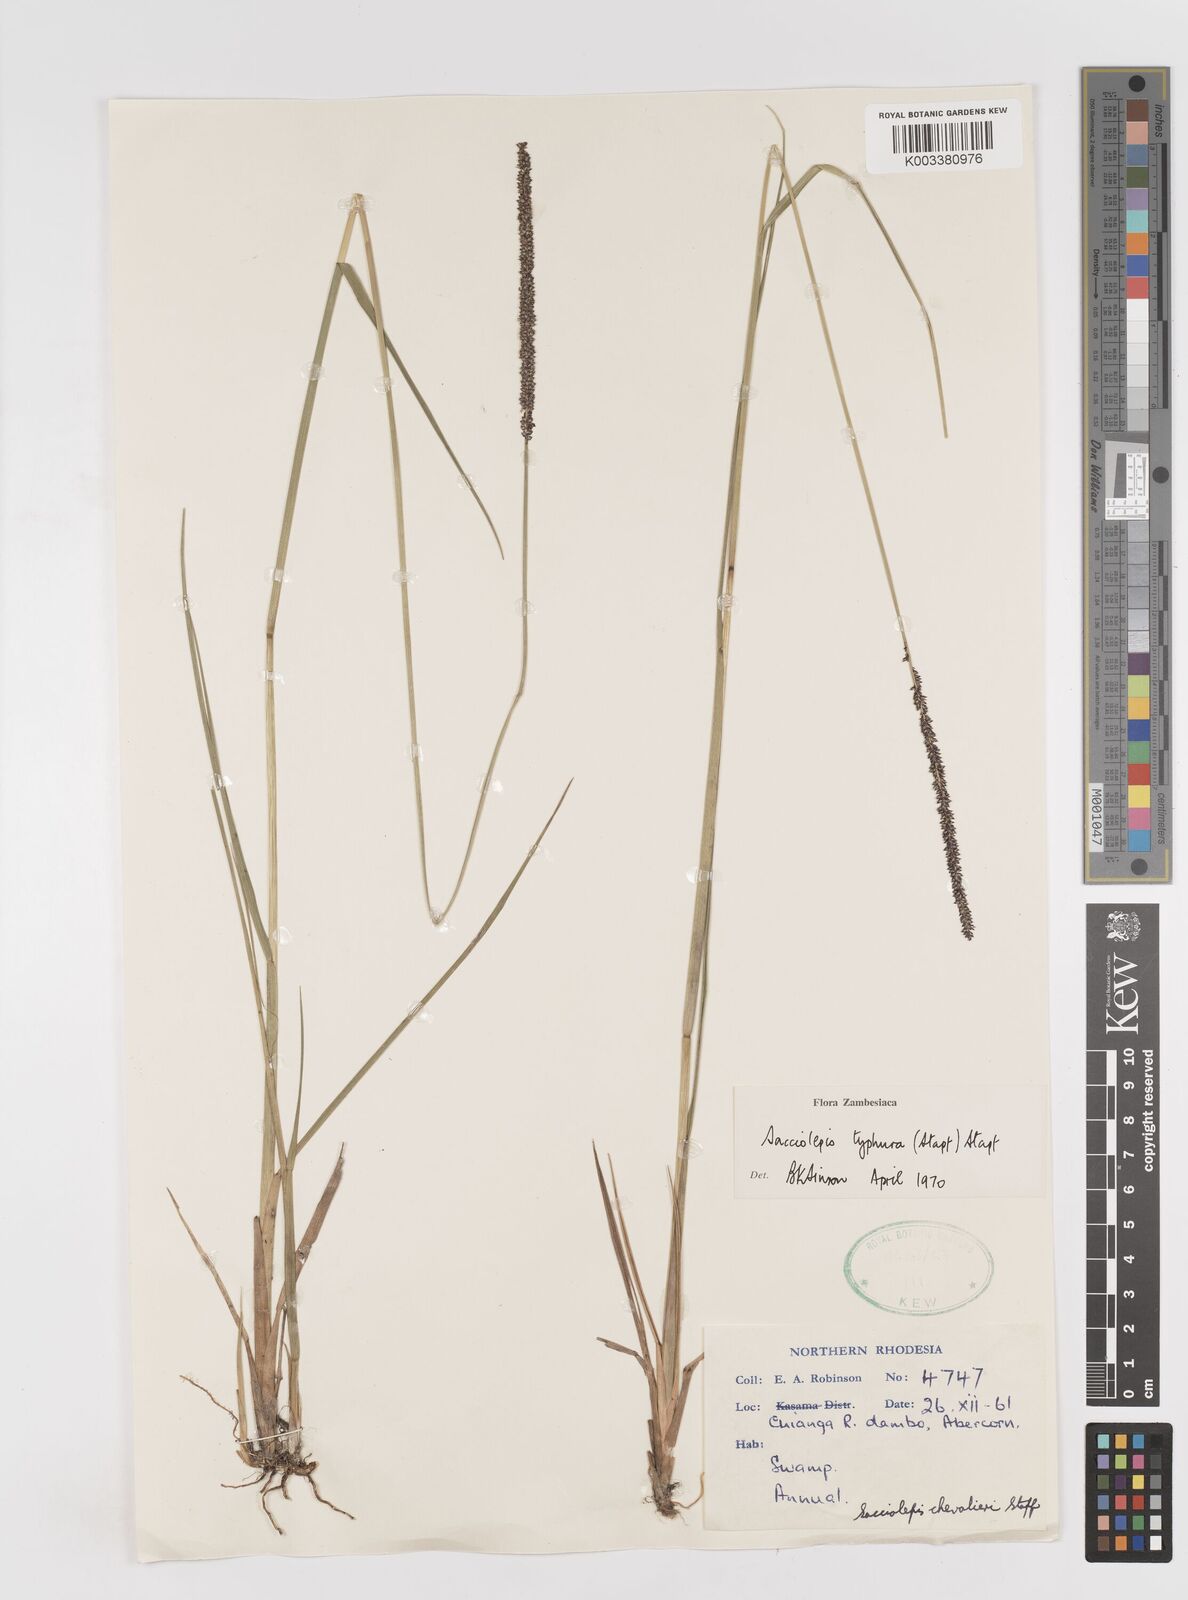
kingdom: Plantae
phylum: Tracheophyta
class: Liliopsida
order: Poales
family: Poaceae
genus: Sacciolepis
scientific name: Sacciolepis typhura
